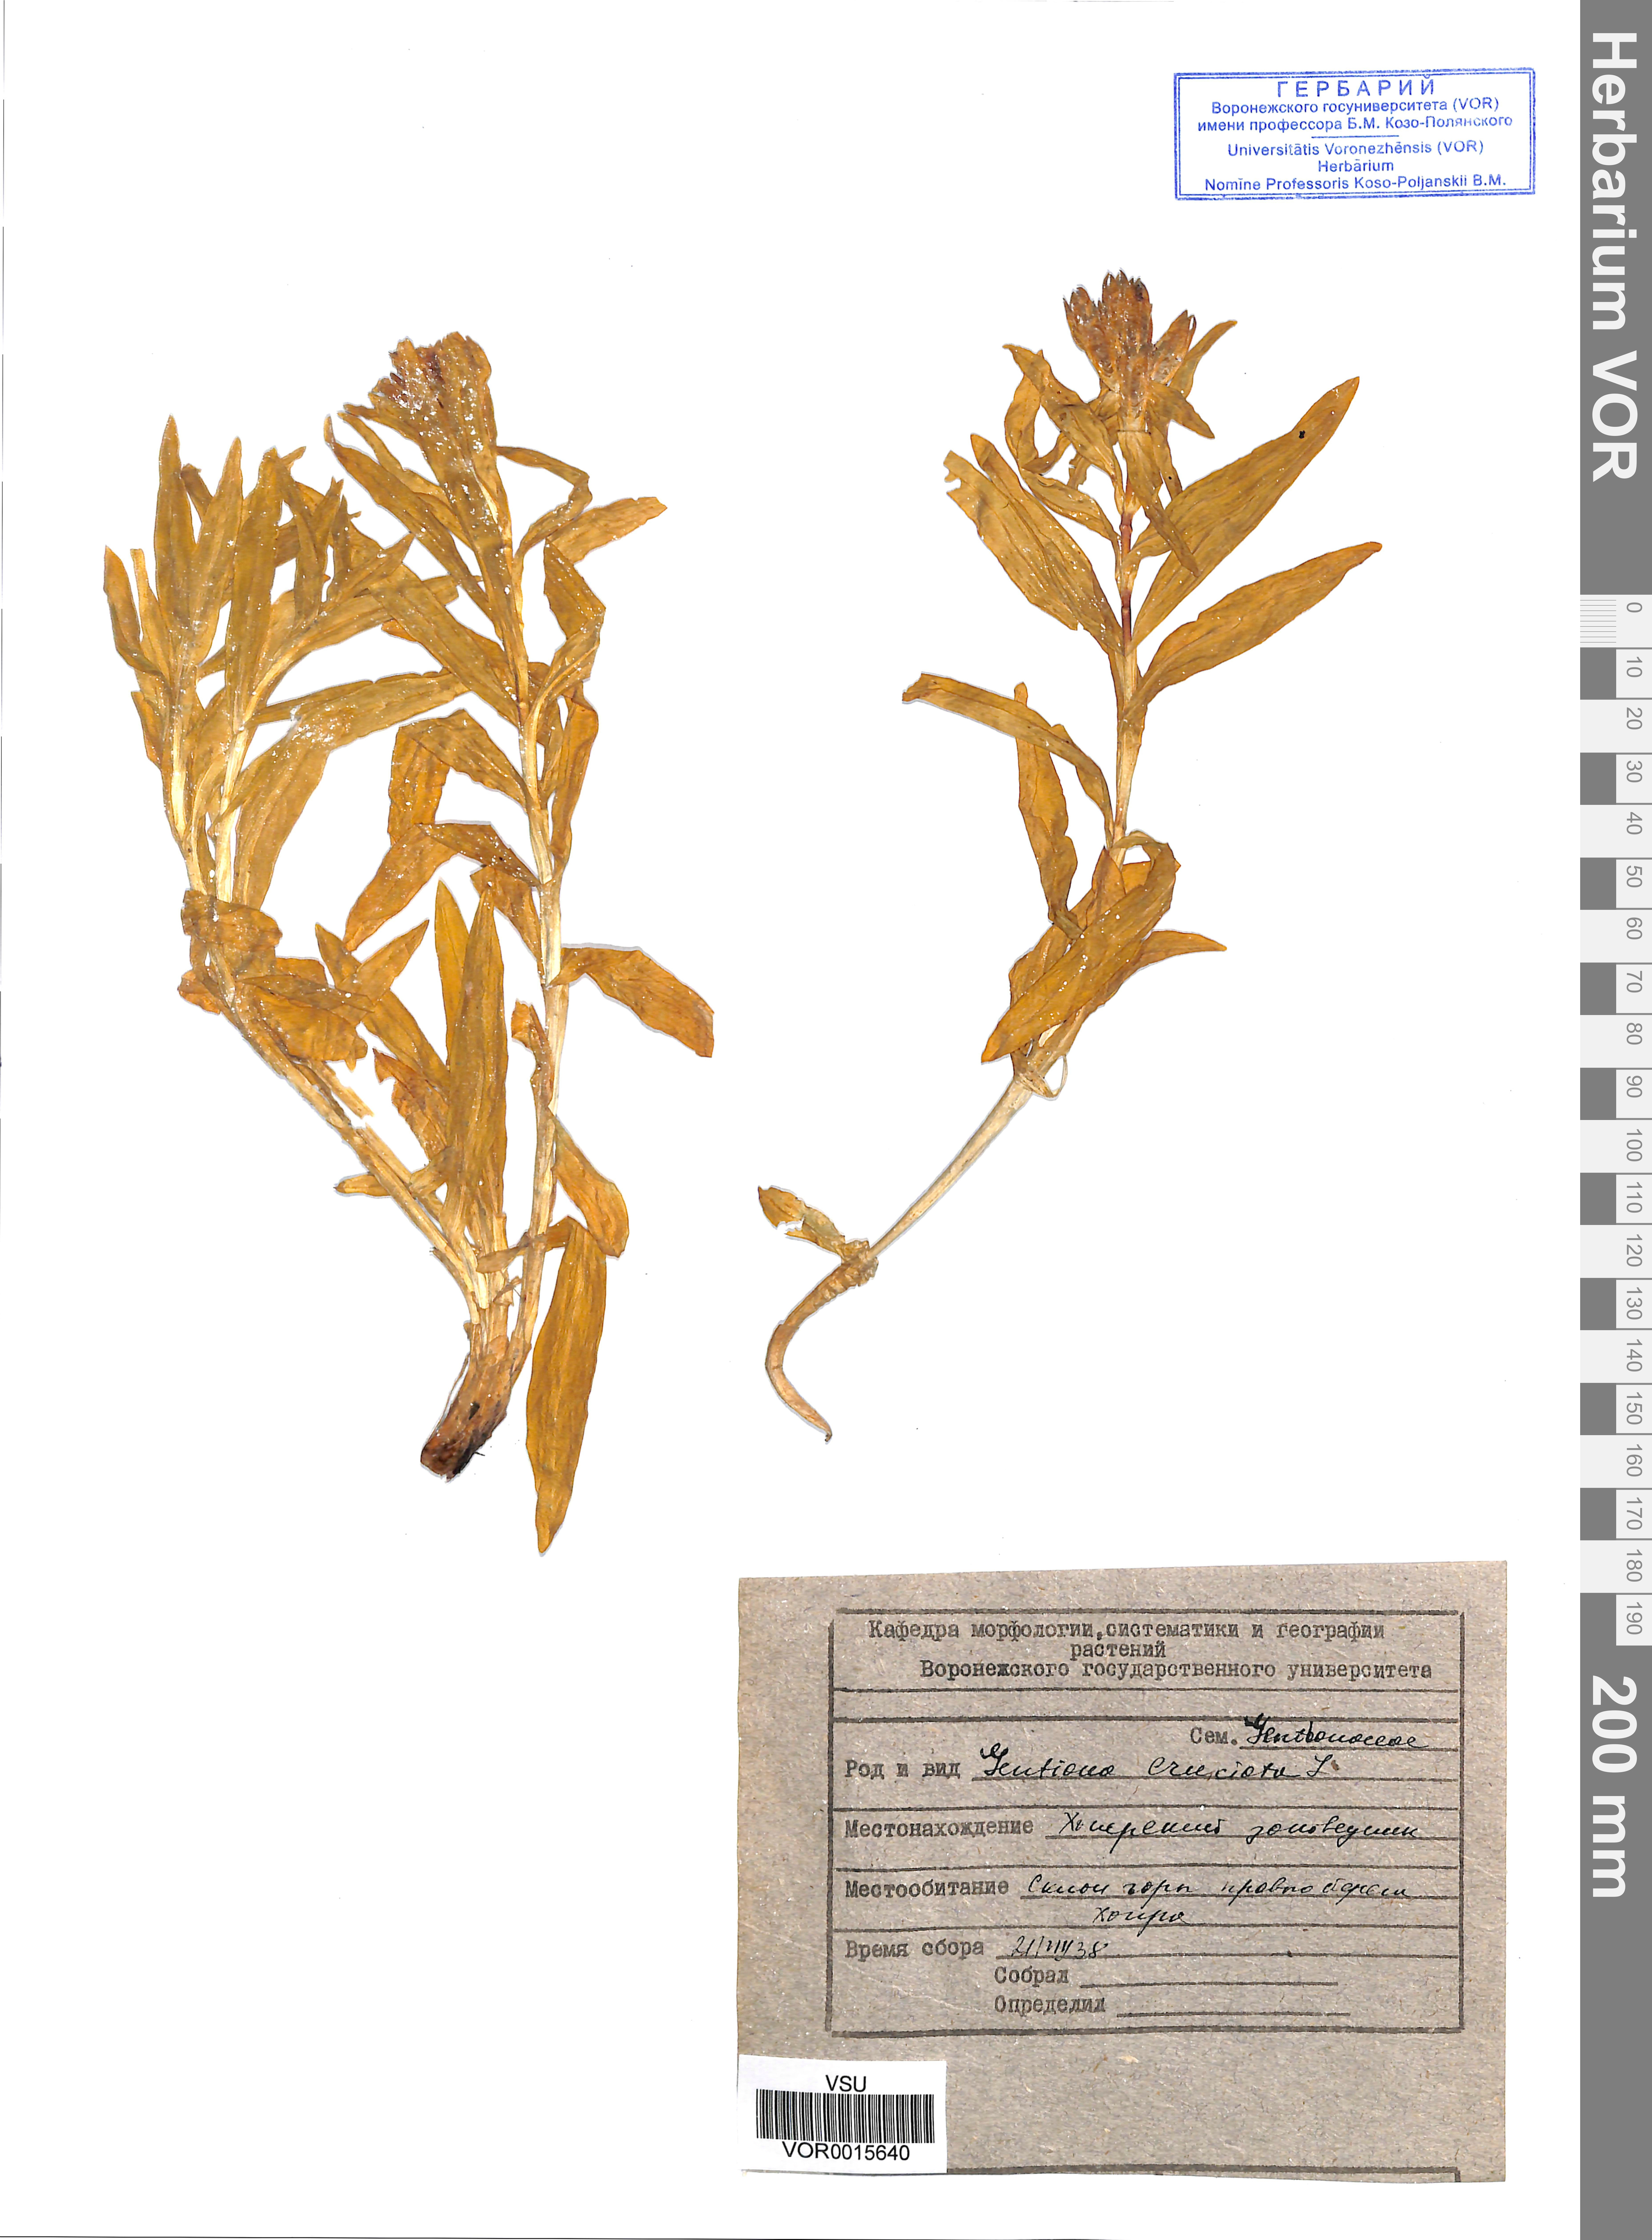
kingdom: Plantae
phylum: Tracheophyta
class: Magnoliopsida
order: Gentianales
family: Gentianaceae
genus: Gentiana
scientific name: Gentiana cruciata
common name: Cross gentian
